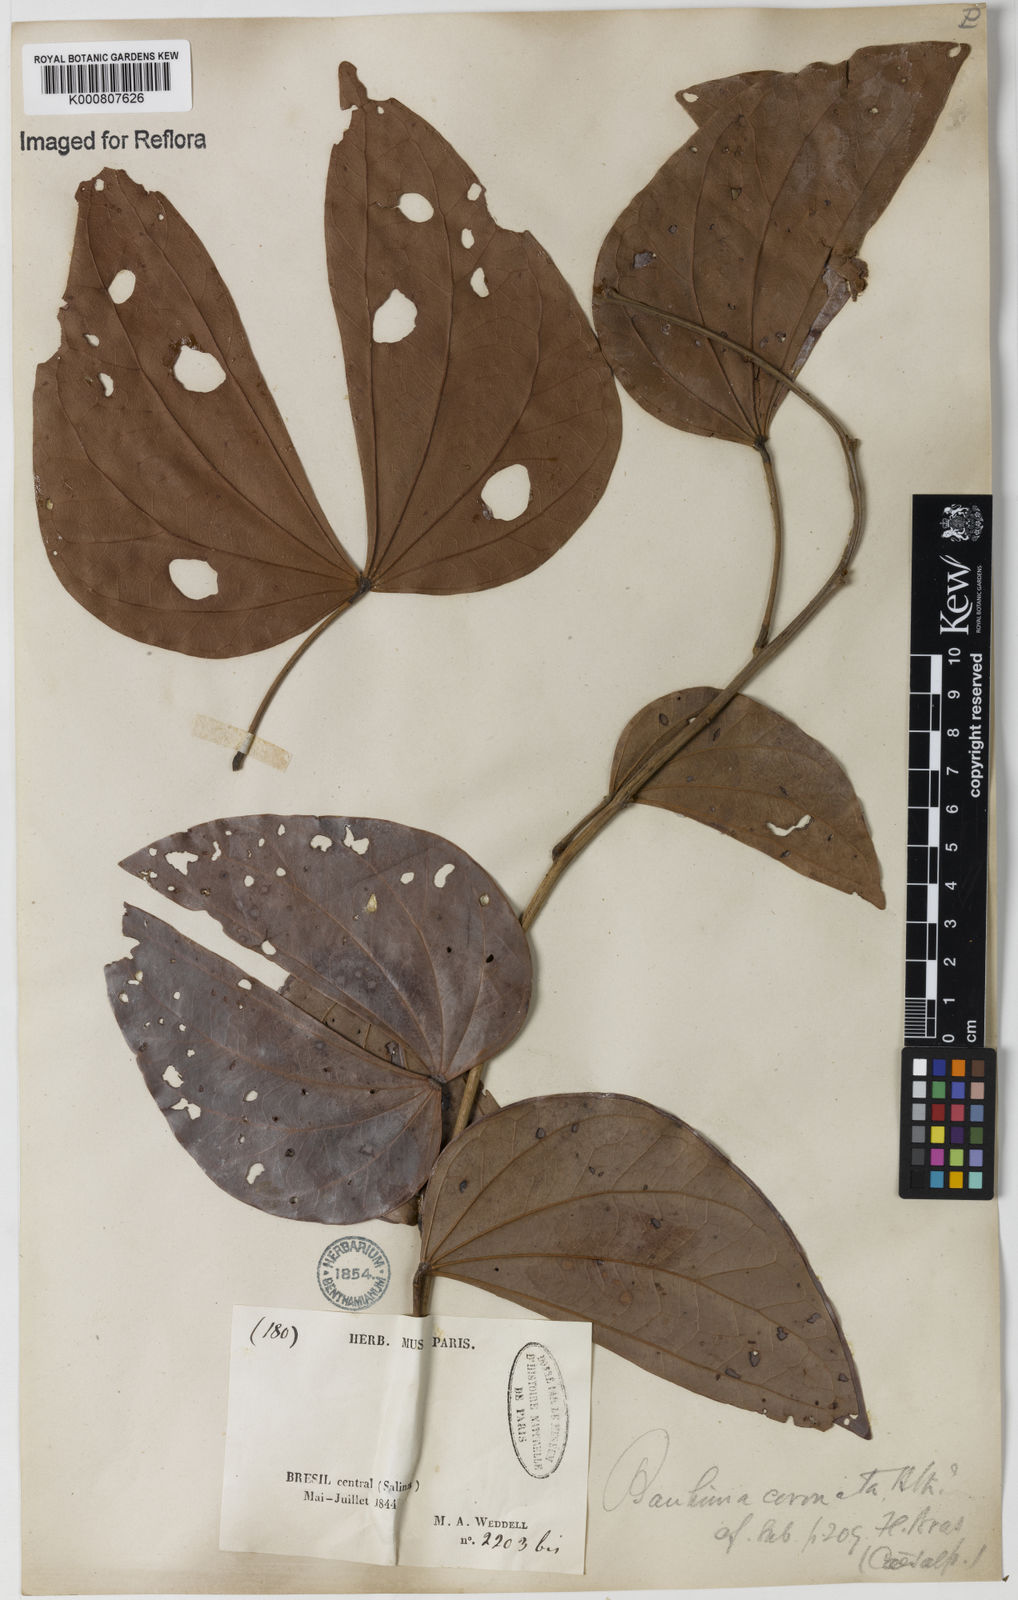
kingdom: Plantae
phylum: Tracheophyta
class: Magnoliopsida
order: Fabales
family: Fabaceae
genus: Schnella
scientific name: Schnella outimouta
